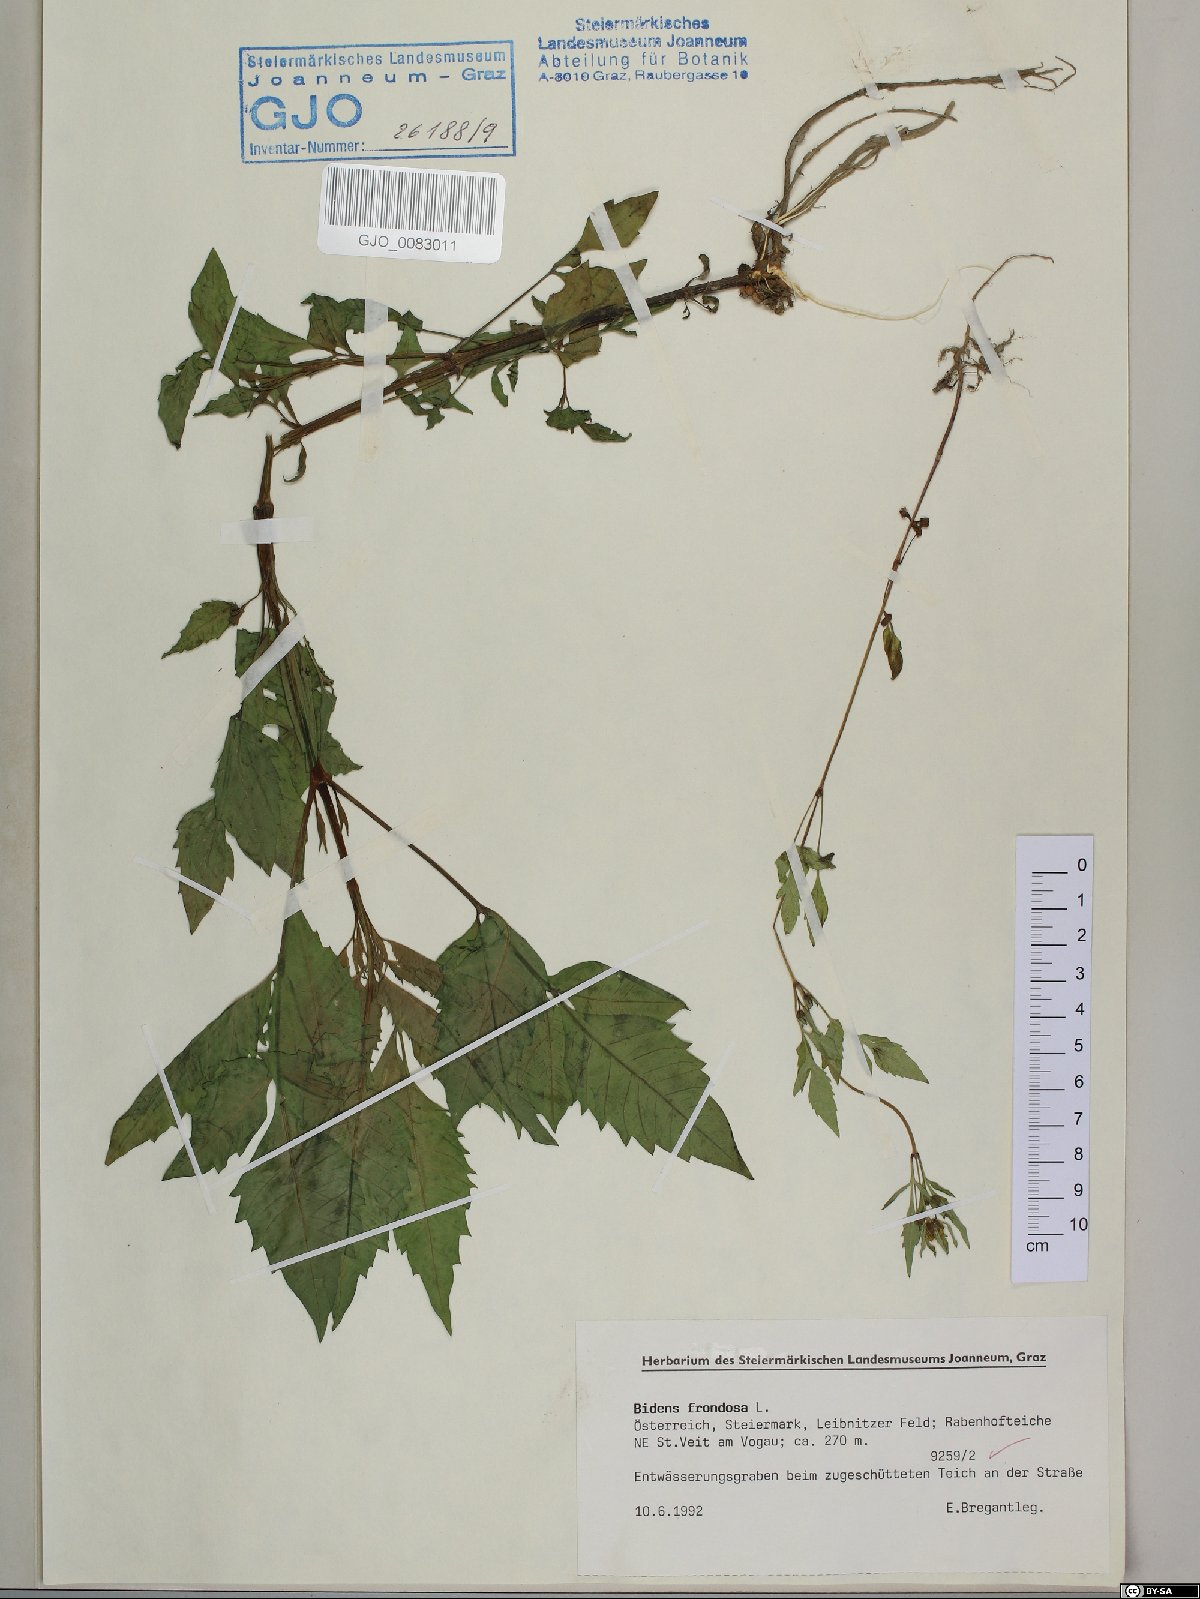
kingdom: Plantae
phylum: Tracheophyta
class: Magnoliopsida
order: Asterales
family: Asteraceae
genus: Bidens
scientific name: Bidens frondosa
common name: Beggarticks
